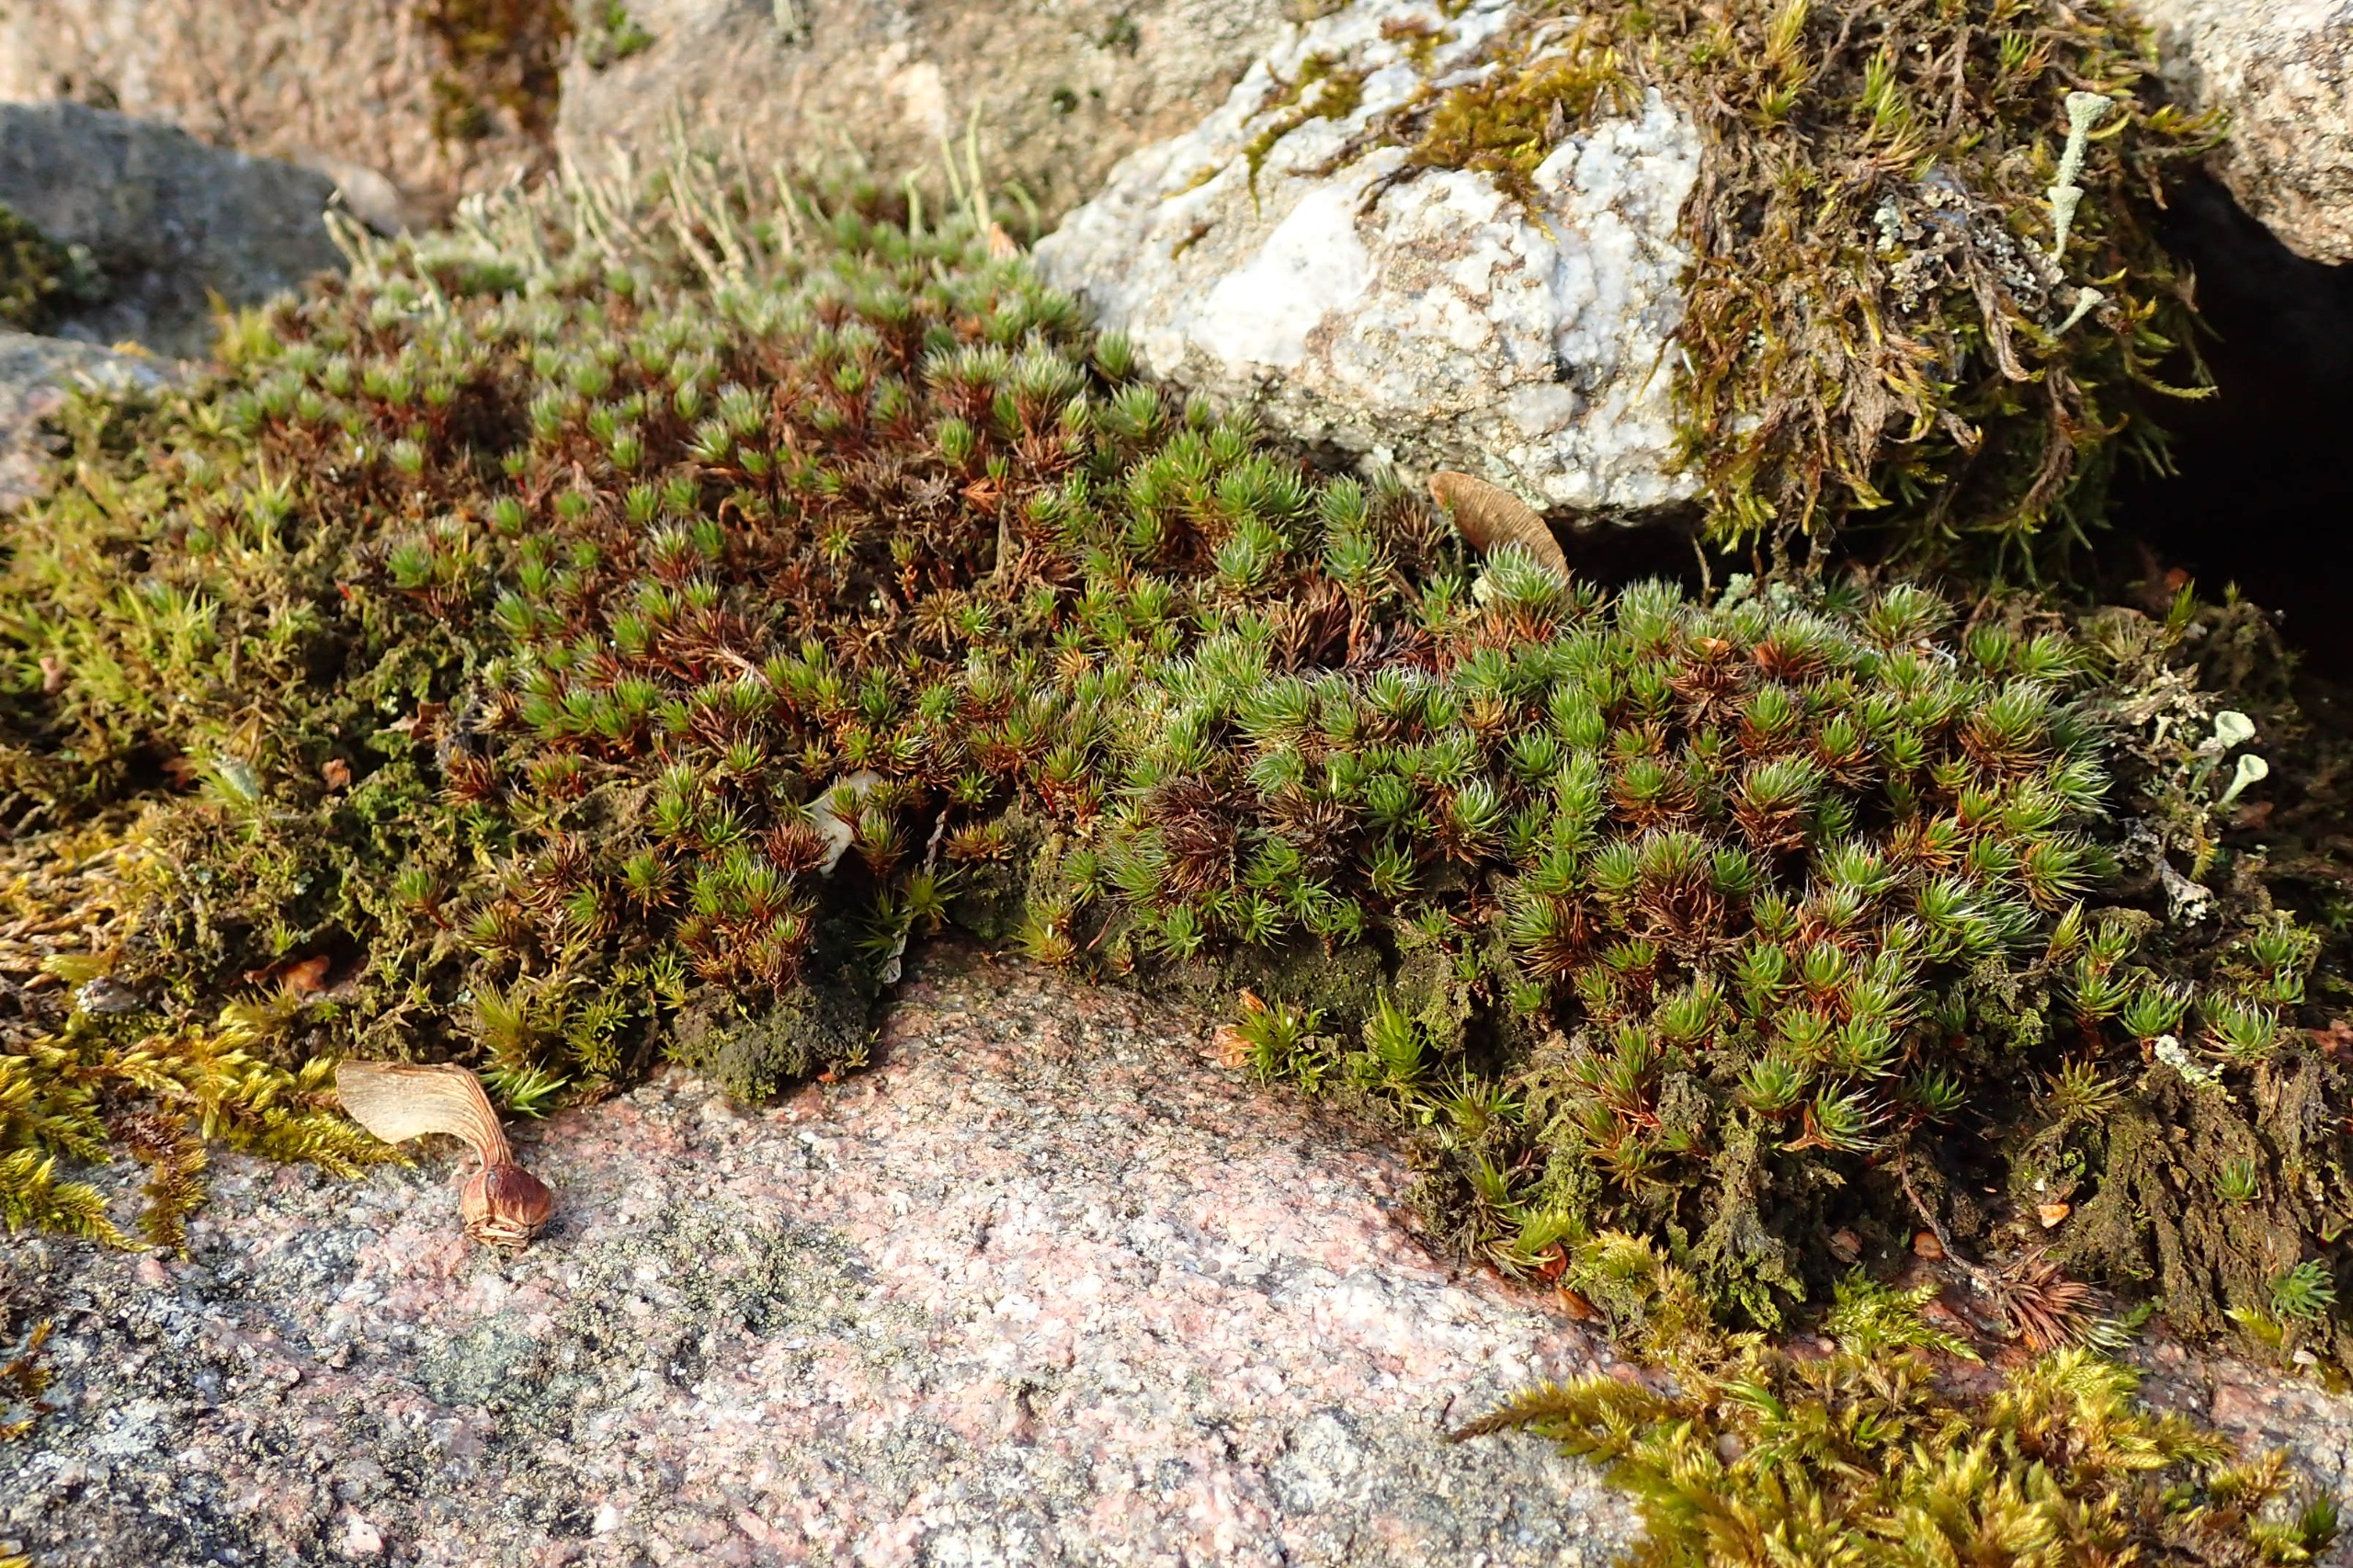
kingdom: Plantae
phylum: Bryophyta
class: Polytrichopsida
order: Polytrichales
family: Polytrichaceae
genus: Polytrichum
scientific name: Polytrichum piliferum
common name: Hårspidset jomfruhår
